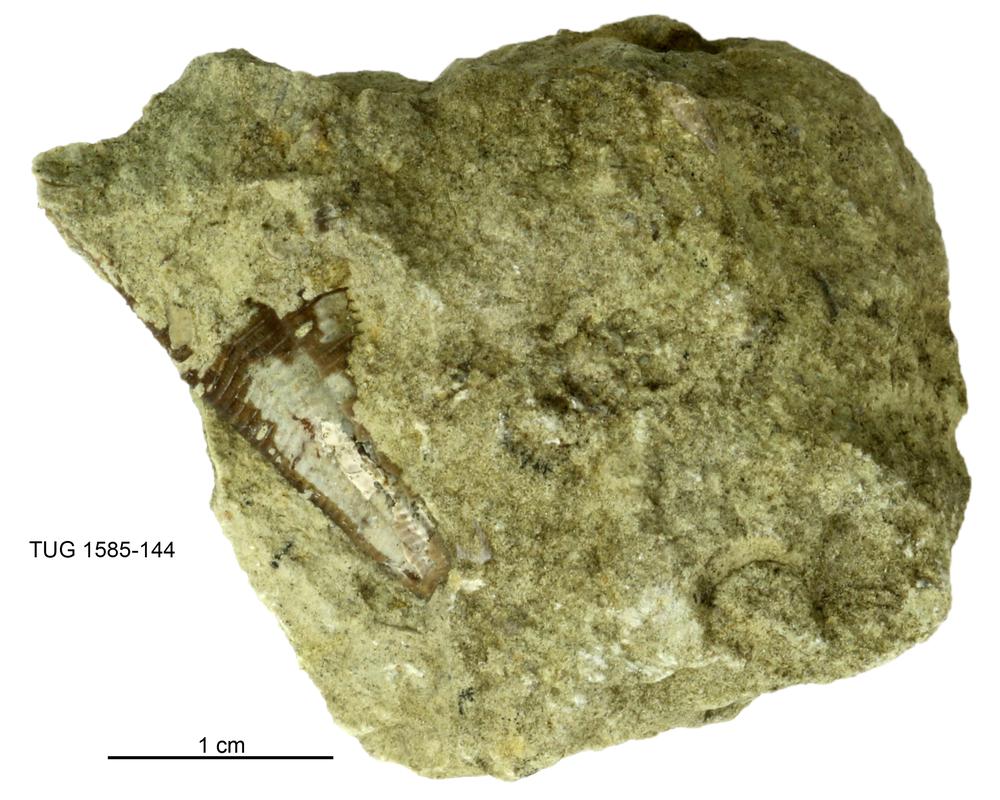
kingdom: Animalia
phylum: Cnidaria
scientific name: Cnidaria
